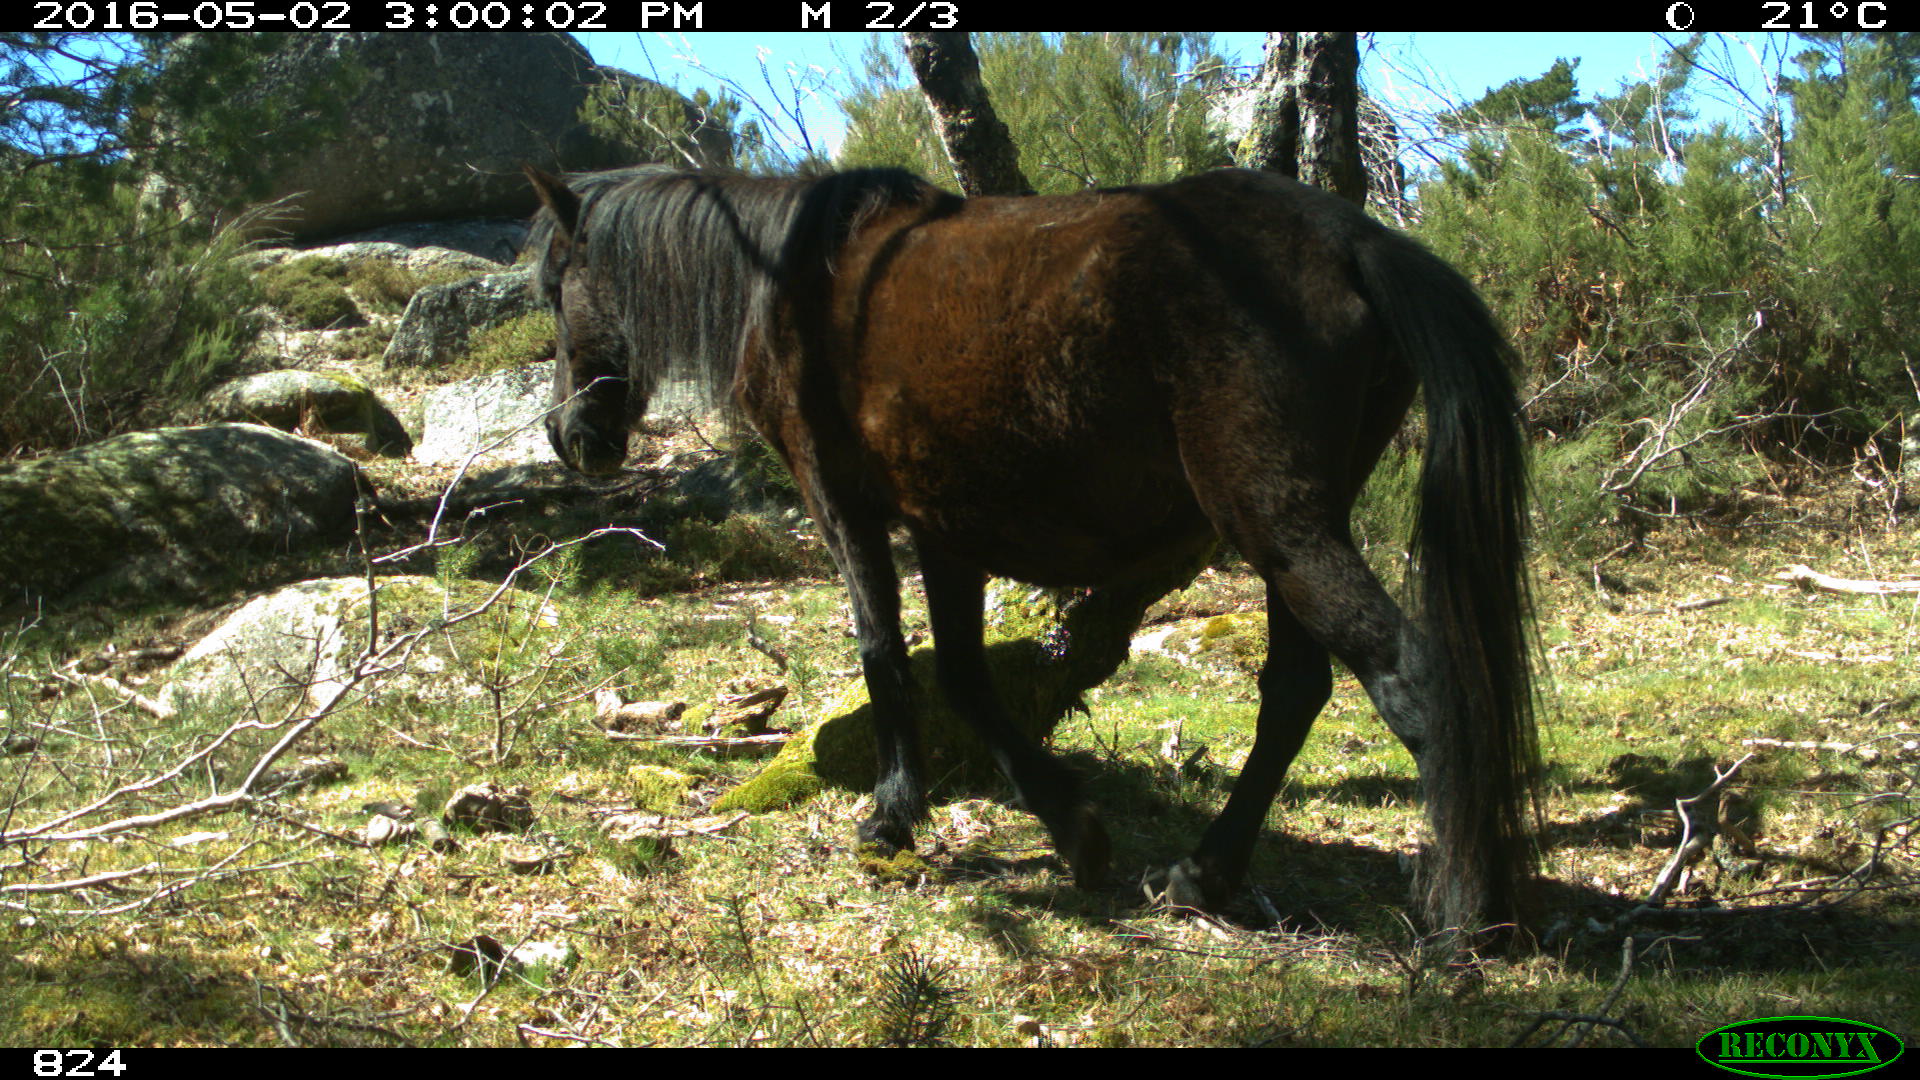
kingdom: Animalia
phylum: Chordata
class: Mammalia
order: Perissodactyla
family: Equidae
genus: Equus
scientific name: Equus caballus
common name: Horse
